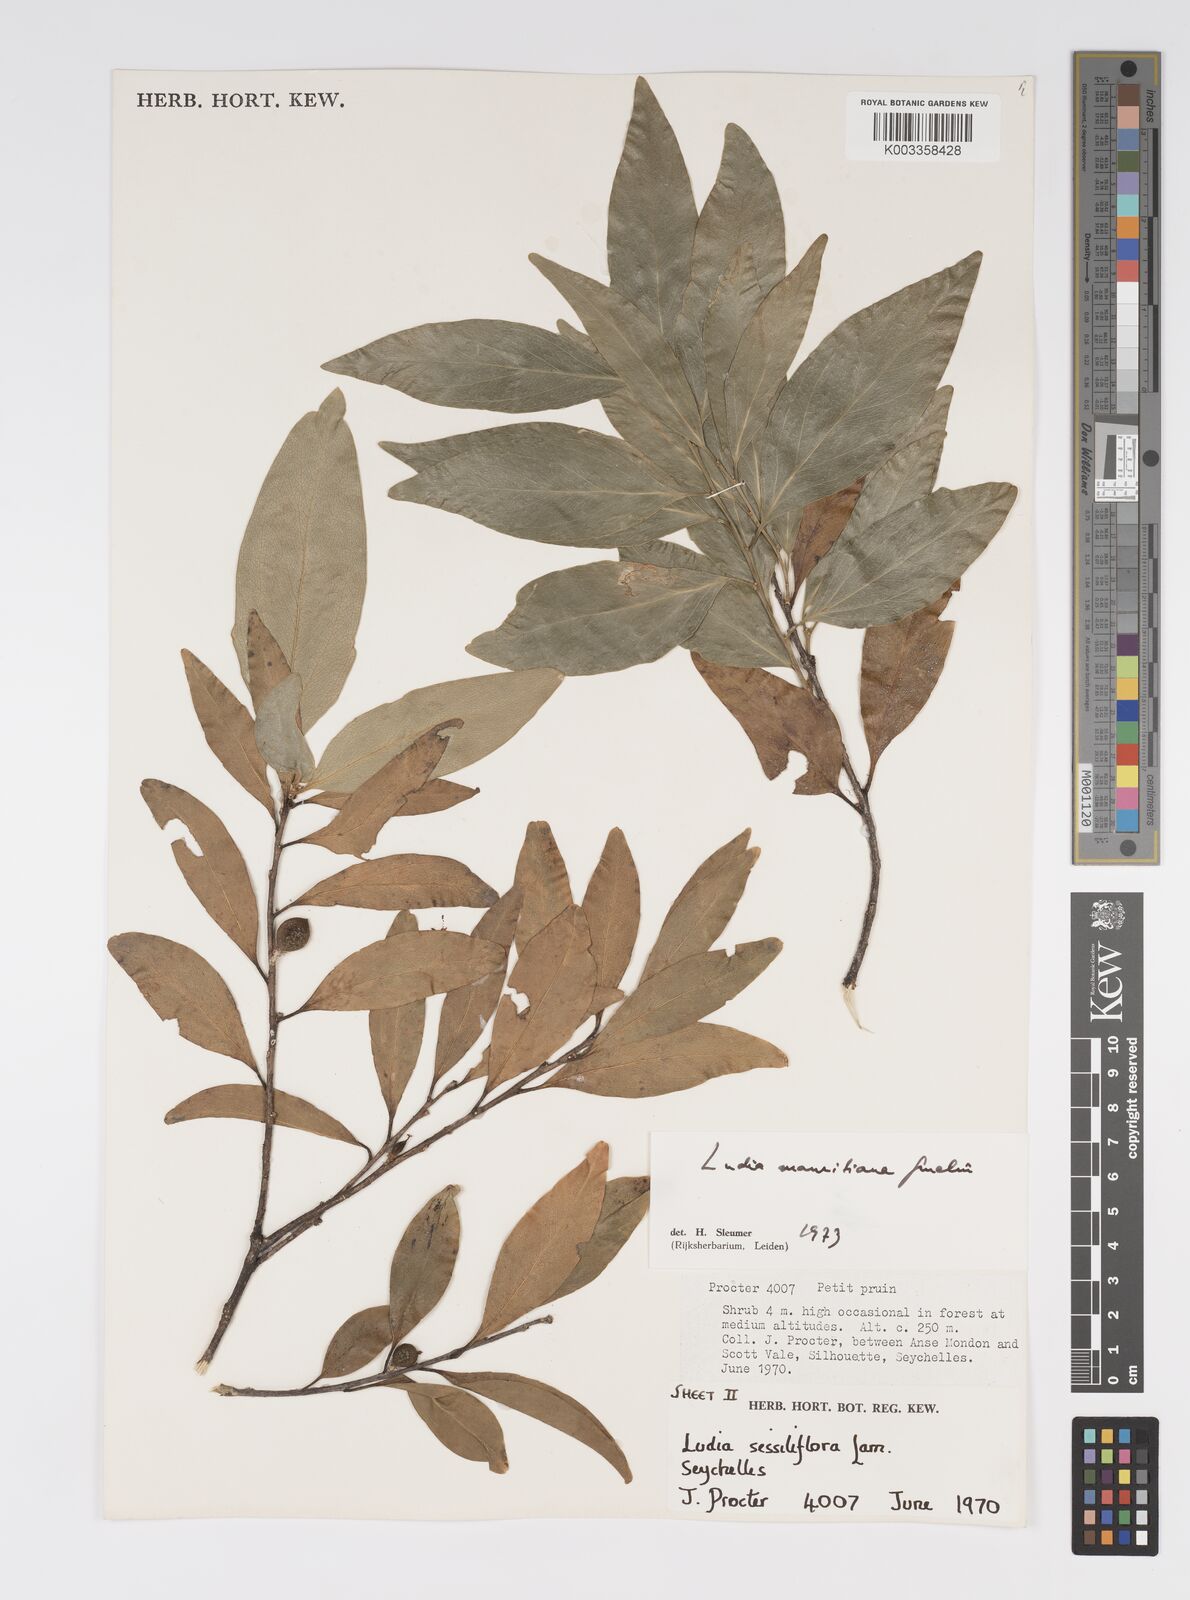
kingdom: Plantae
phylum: Tracheophyta
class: Magnoliopsida
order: Malpighiales
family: Salicaceae
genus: Ludia
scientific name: Ludia mauritiana
